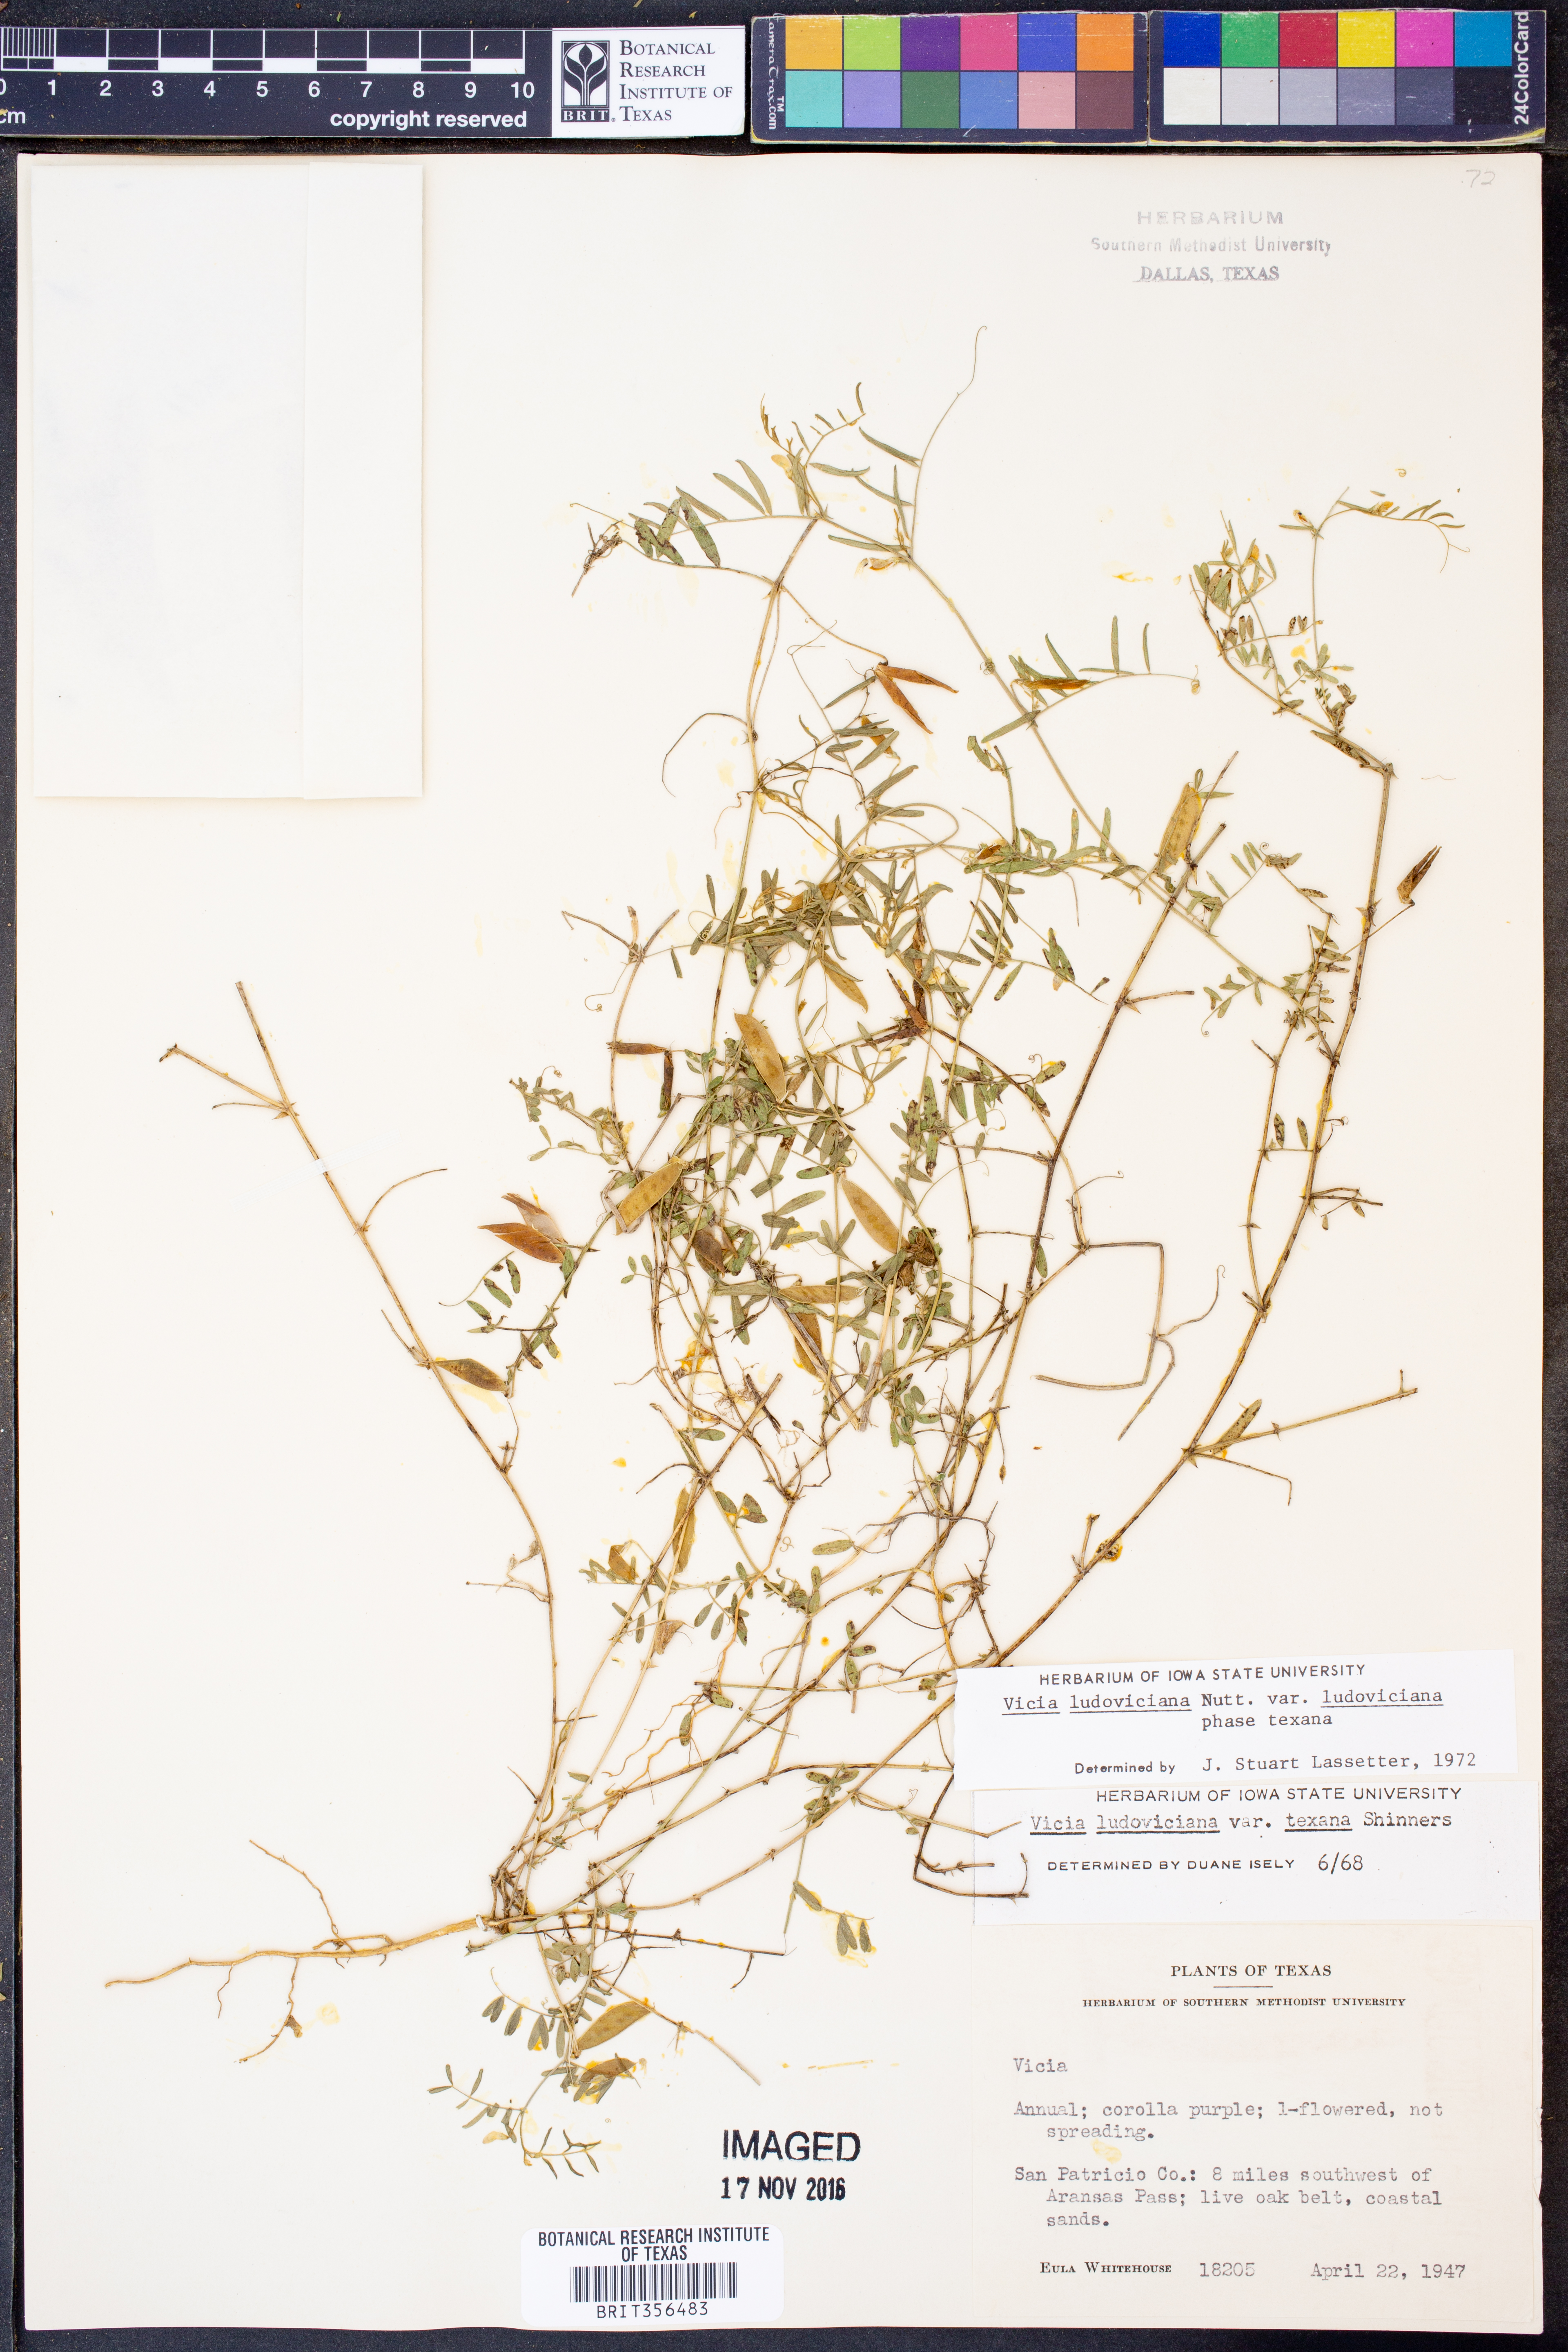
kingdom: Plantae
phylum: Tracheophyta
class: Magnoliopsida
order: Fabales
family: Fabaceae
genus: Vicia
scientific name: Vicia ludoviciana
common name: Louisiana vetch
